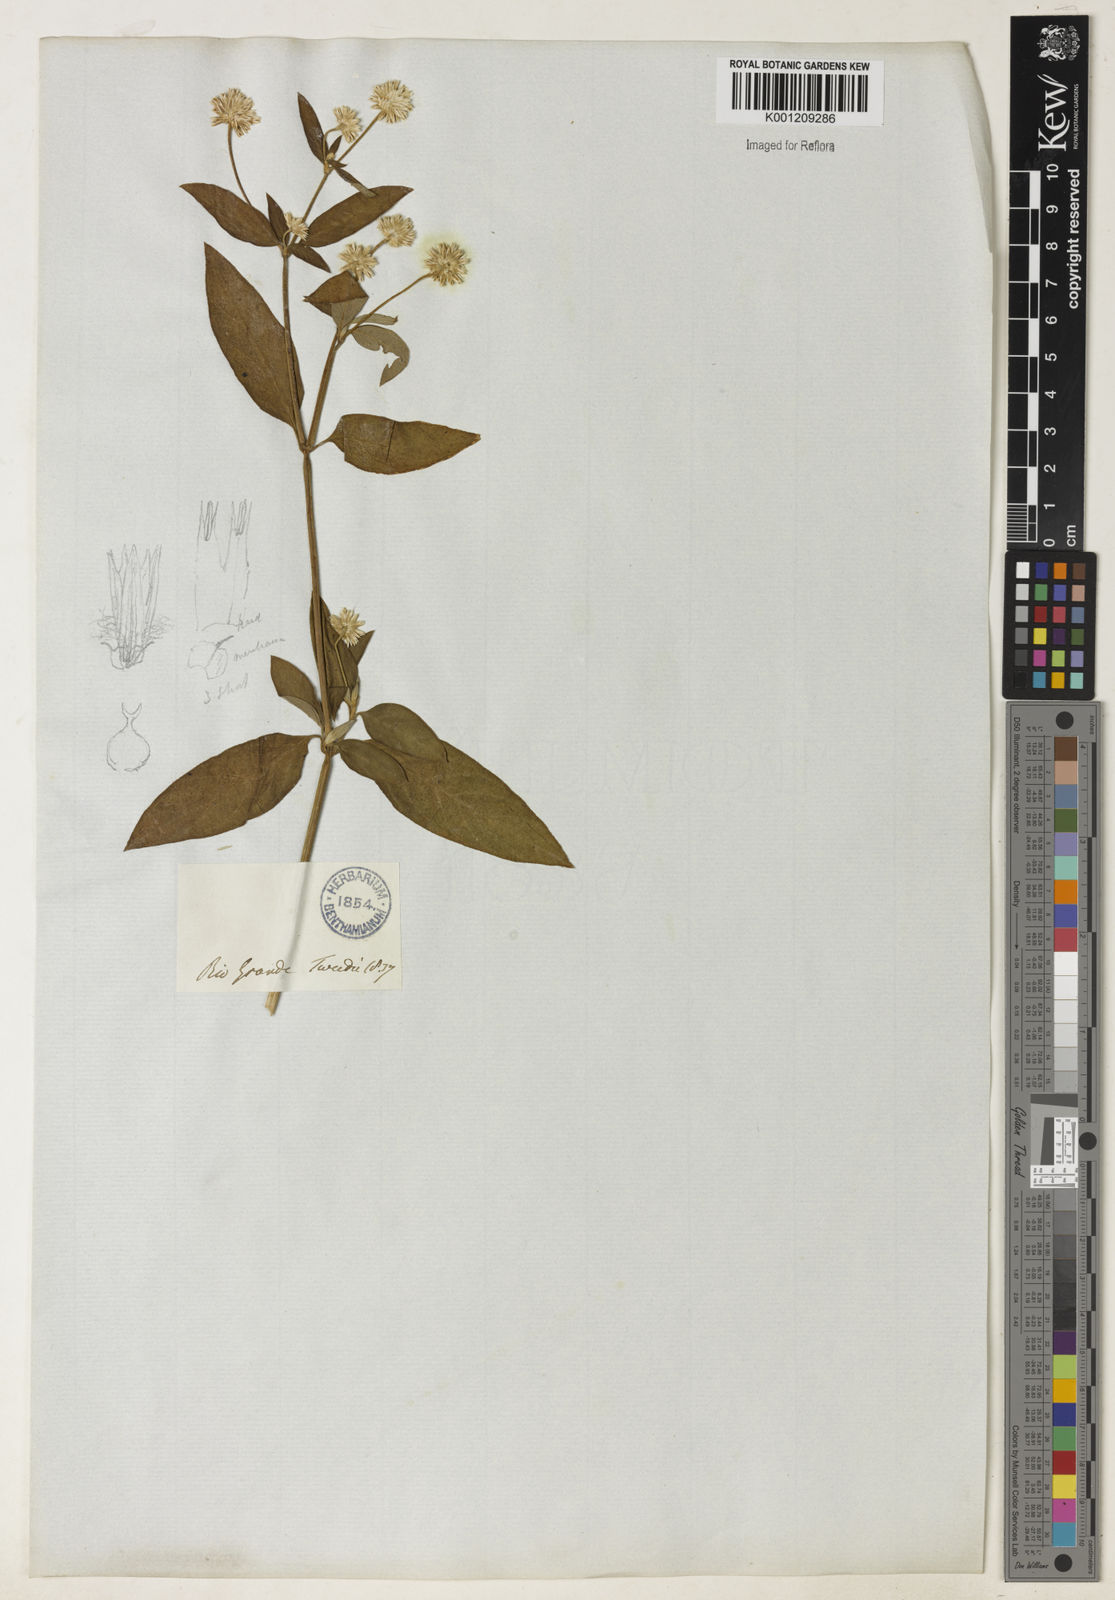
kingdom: Plantae
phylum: Tracheophyta
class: Magnoliopsida
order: Caryophyllales
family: Amaranthaceae
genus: Gomphrena
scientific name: Gomphrena elegans
